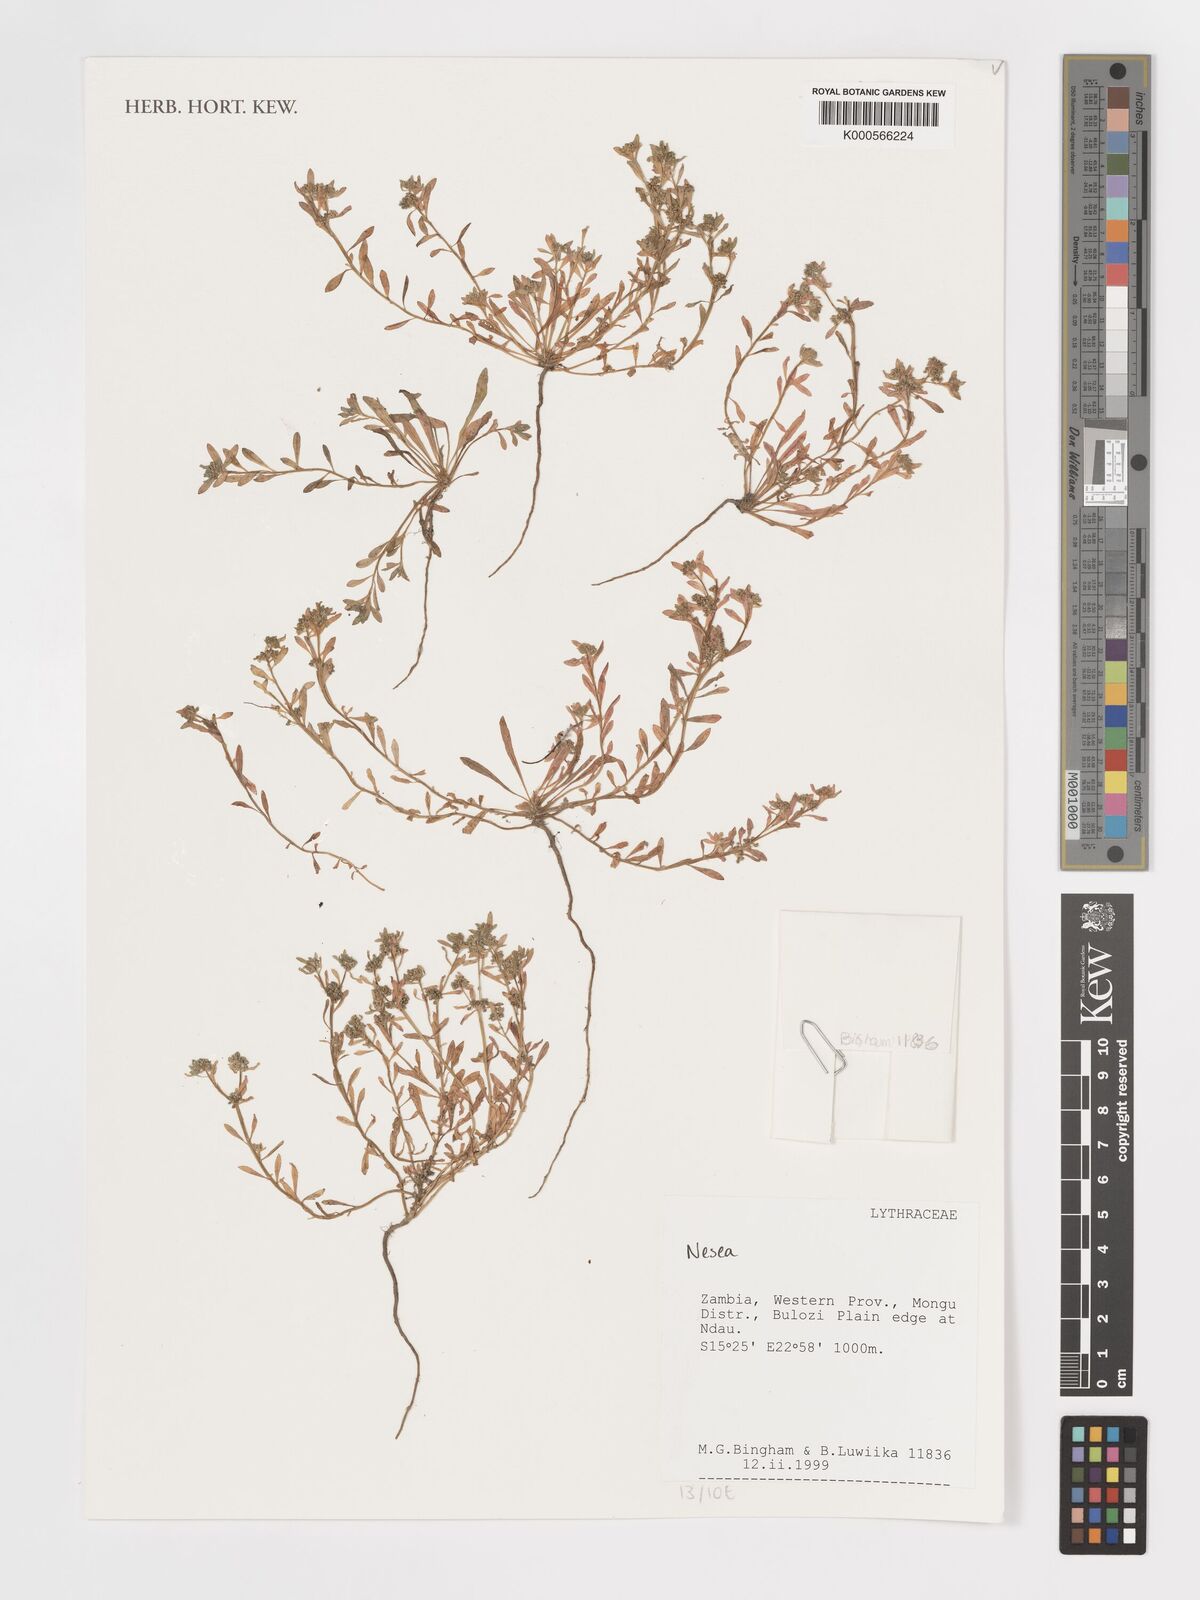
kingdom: Plantae
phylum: Tracheophyta
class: Magnoliopsida
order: Myrtales
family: Lythraceae
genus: Ammannia
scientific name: Ammannia auriculata
